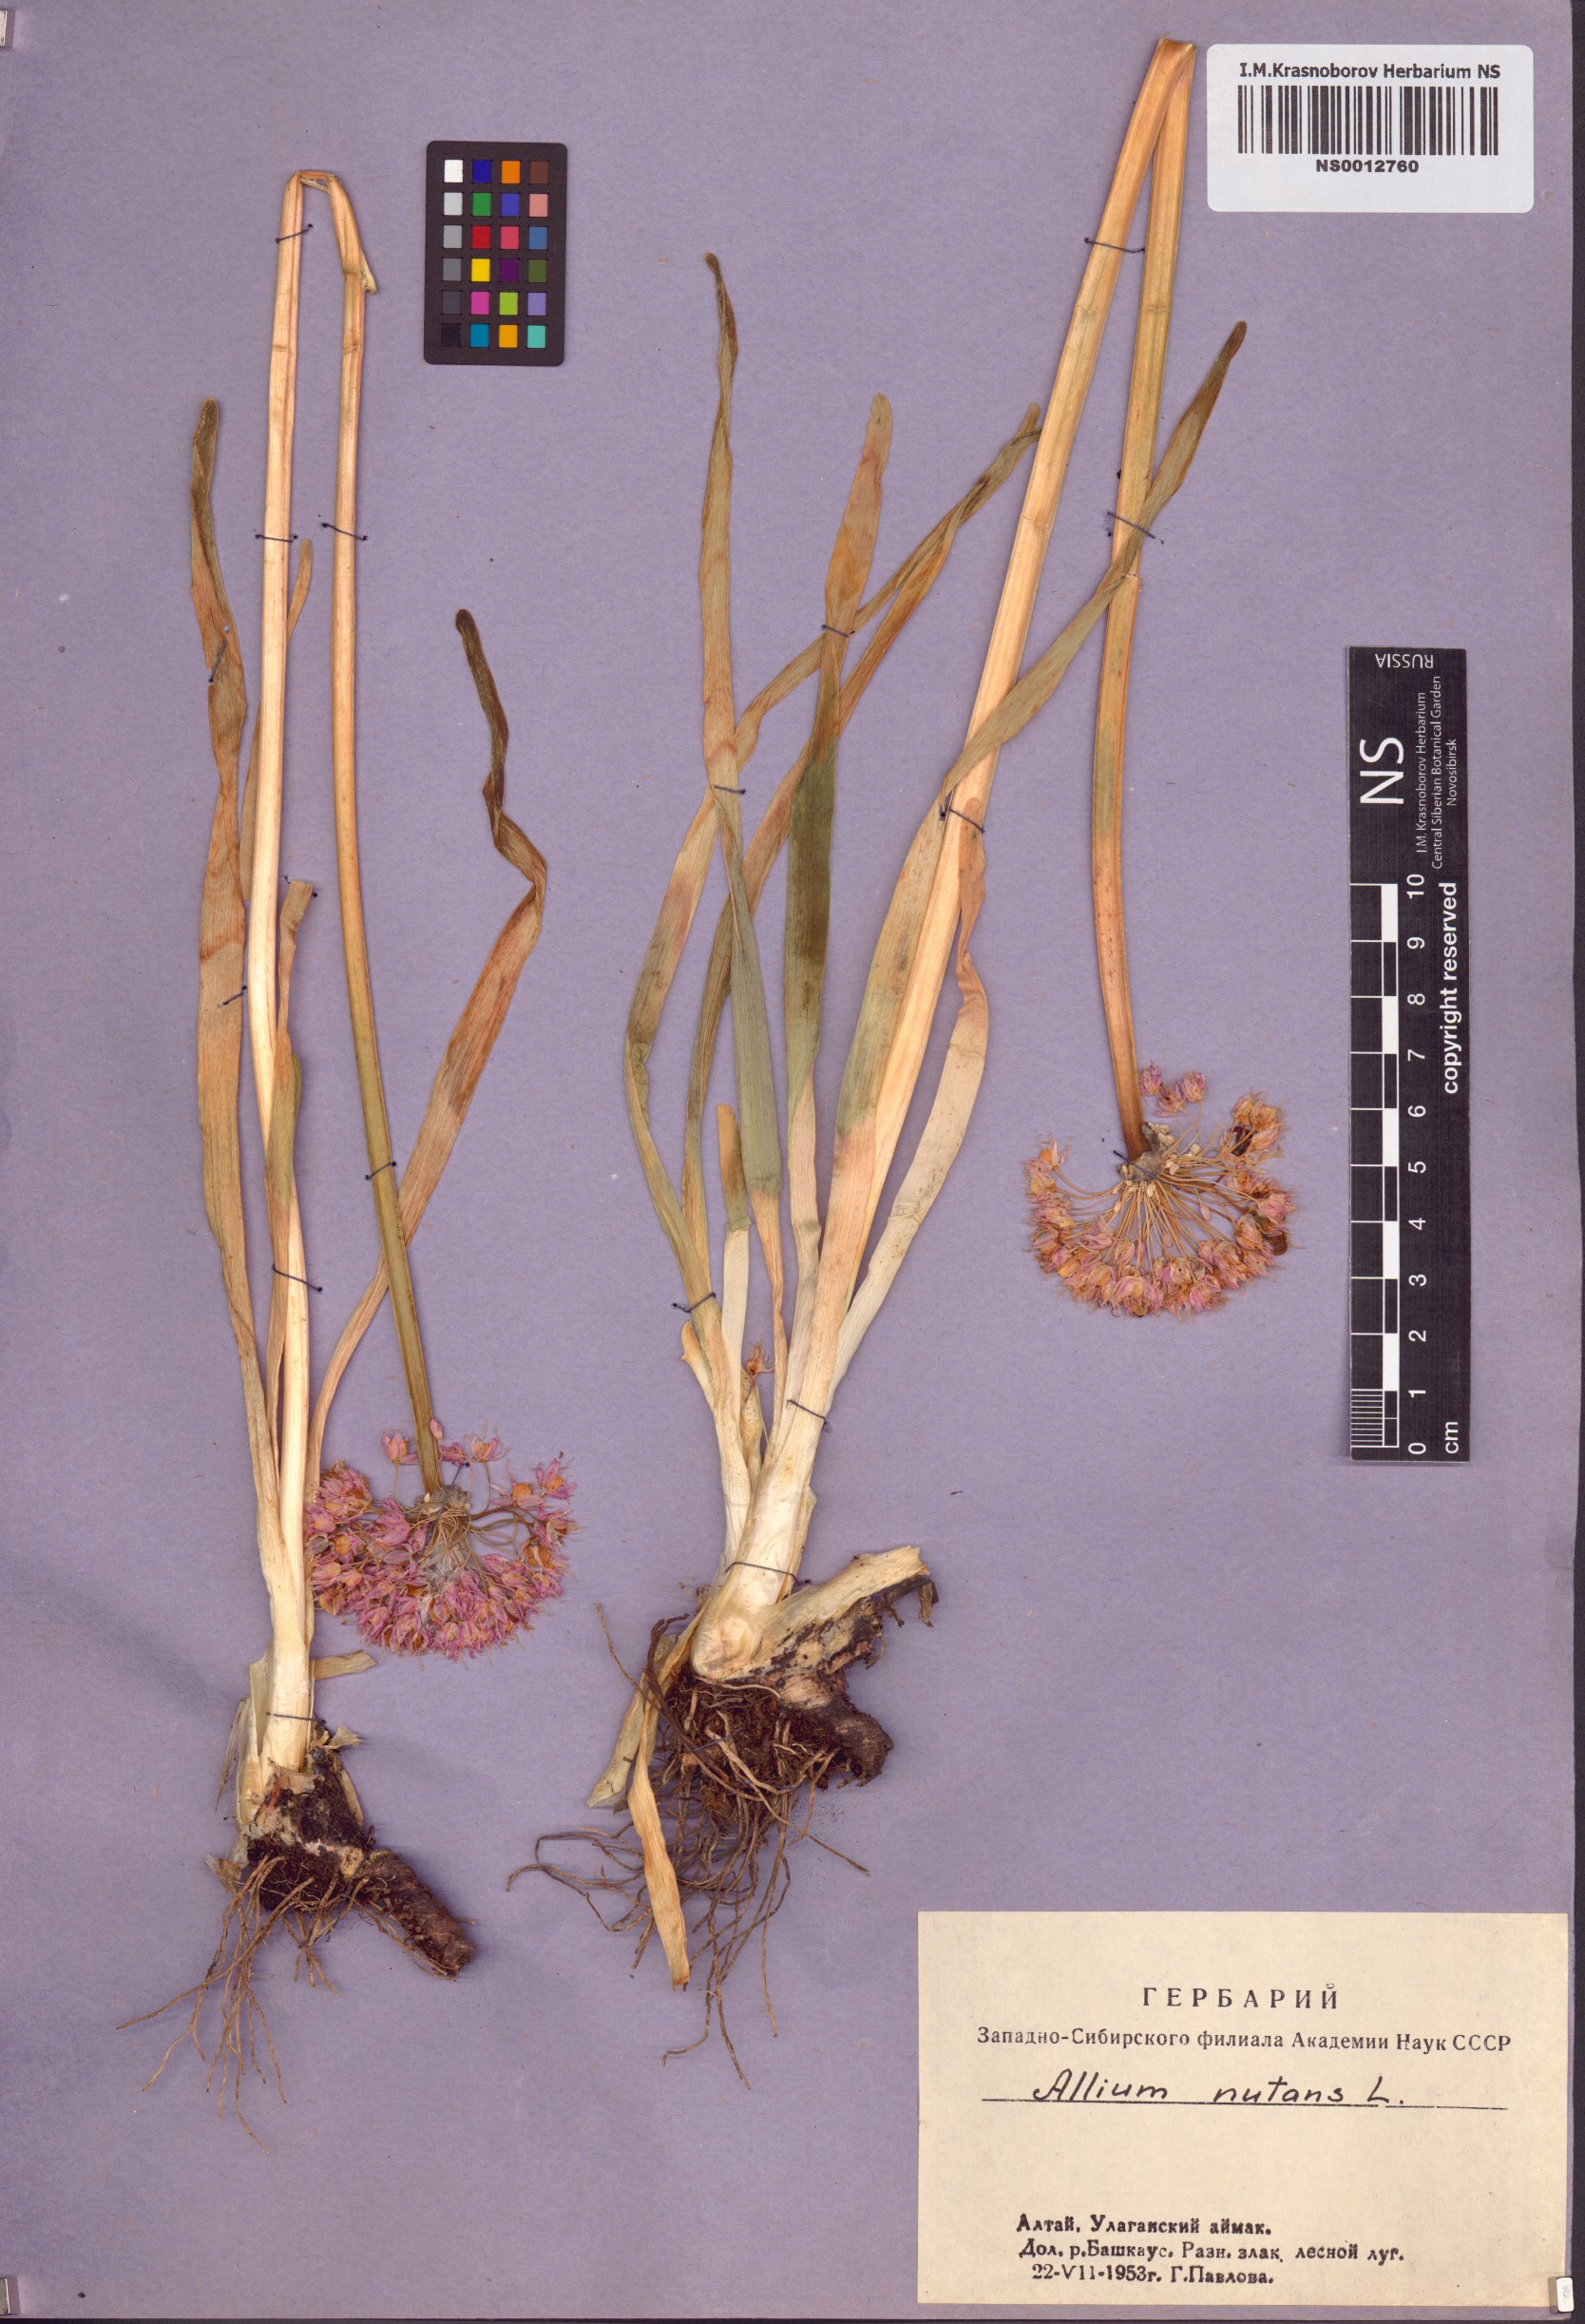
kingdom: Plantae
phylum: Tracheophyta
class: Liliopsida
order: Asparagales
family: Amaryllidaceae
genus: Allium
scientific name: Allium nutans
